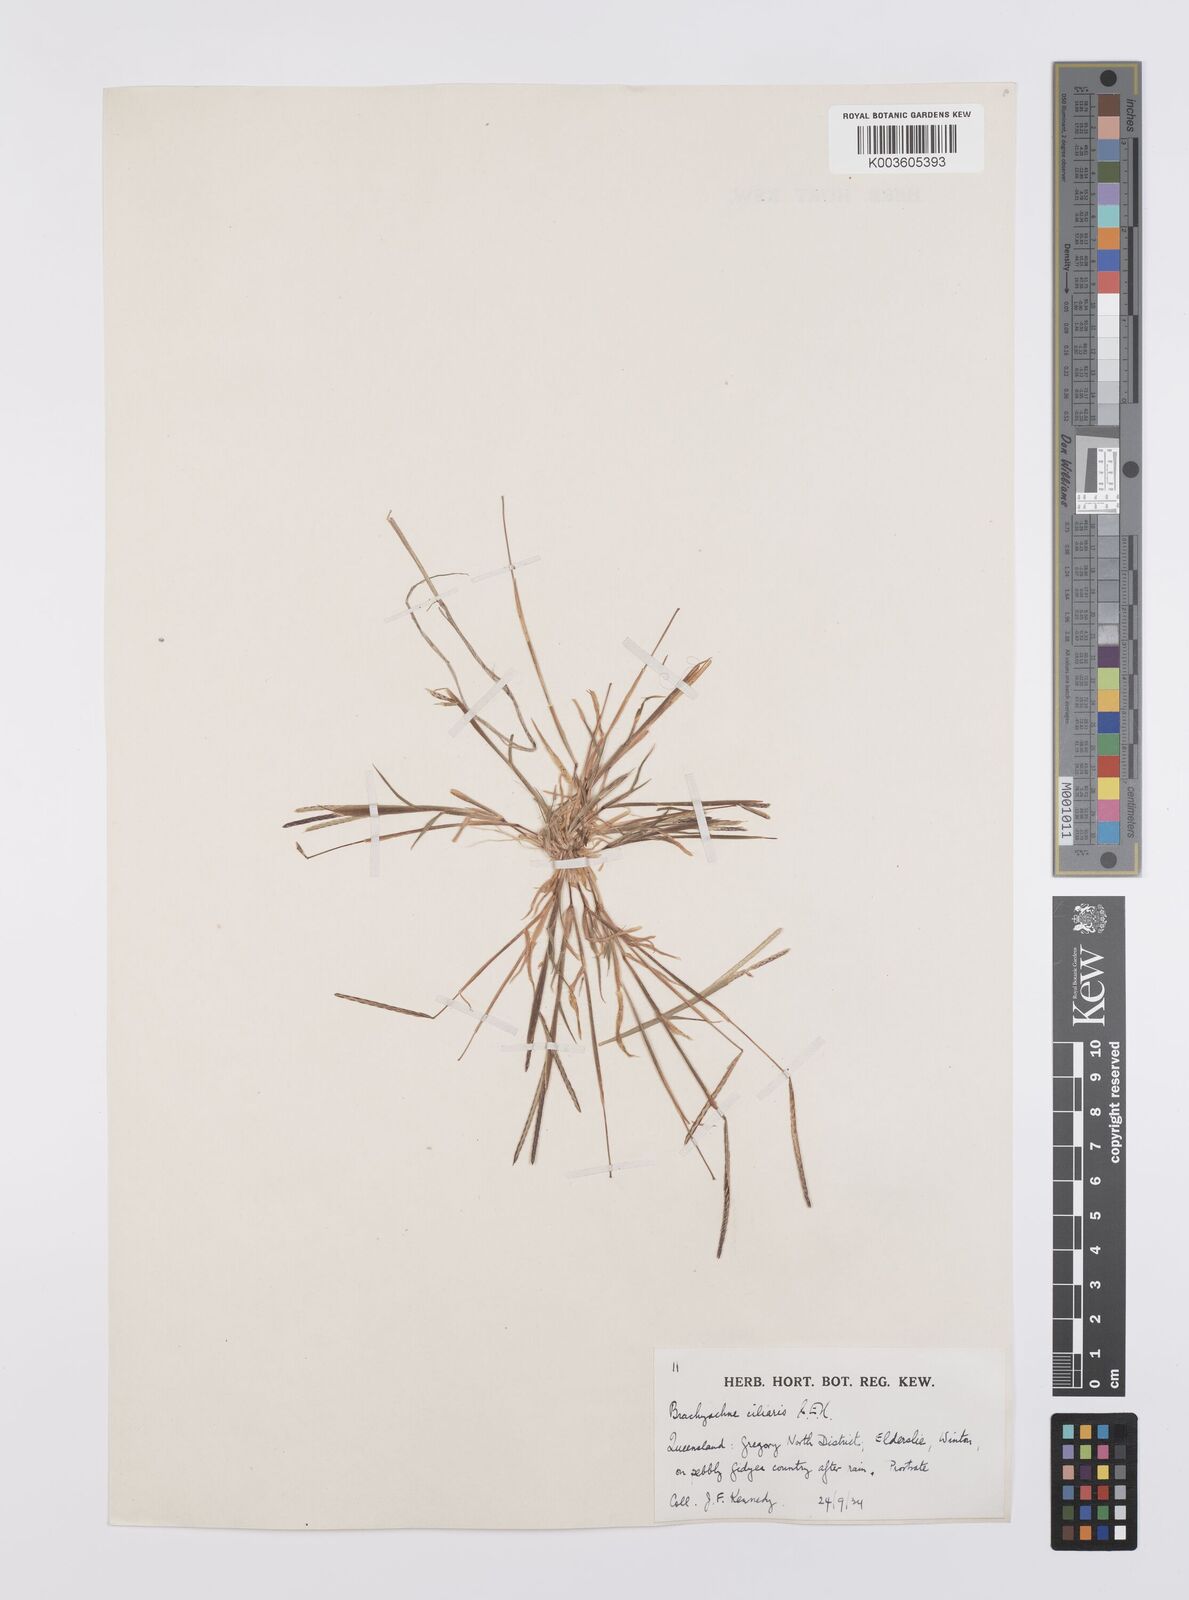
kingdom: Plantae
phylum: Tracheophyta
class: Liliopsida
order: Poales
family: Poaceae
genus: Cynodon
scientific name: Cynodon simonii
